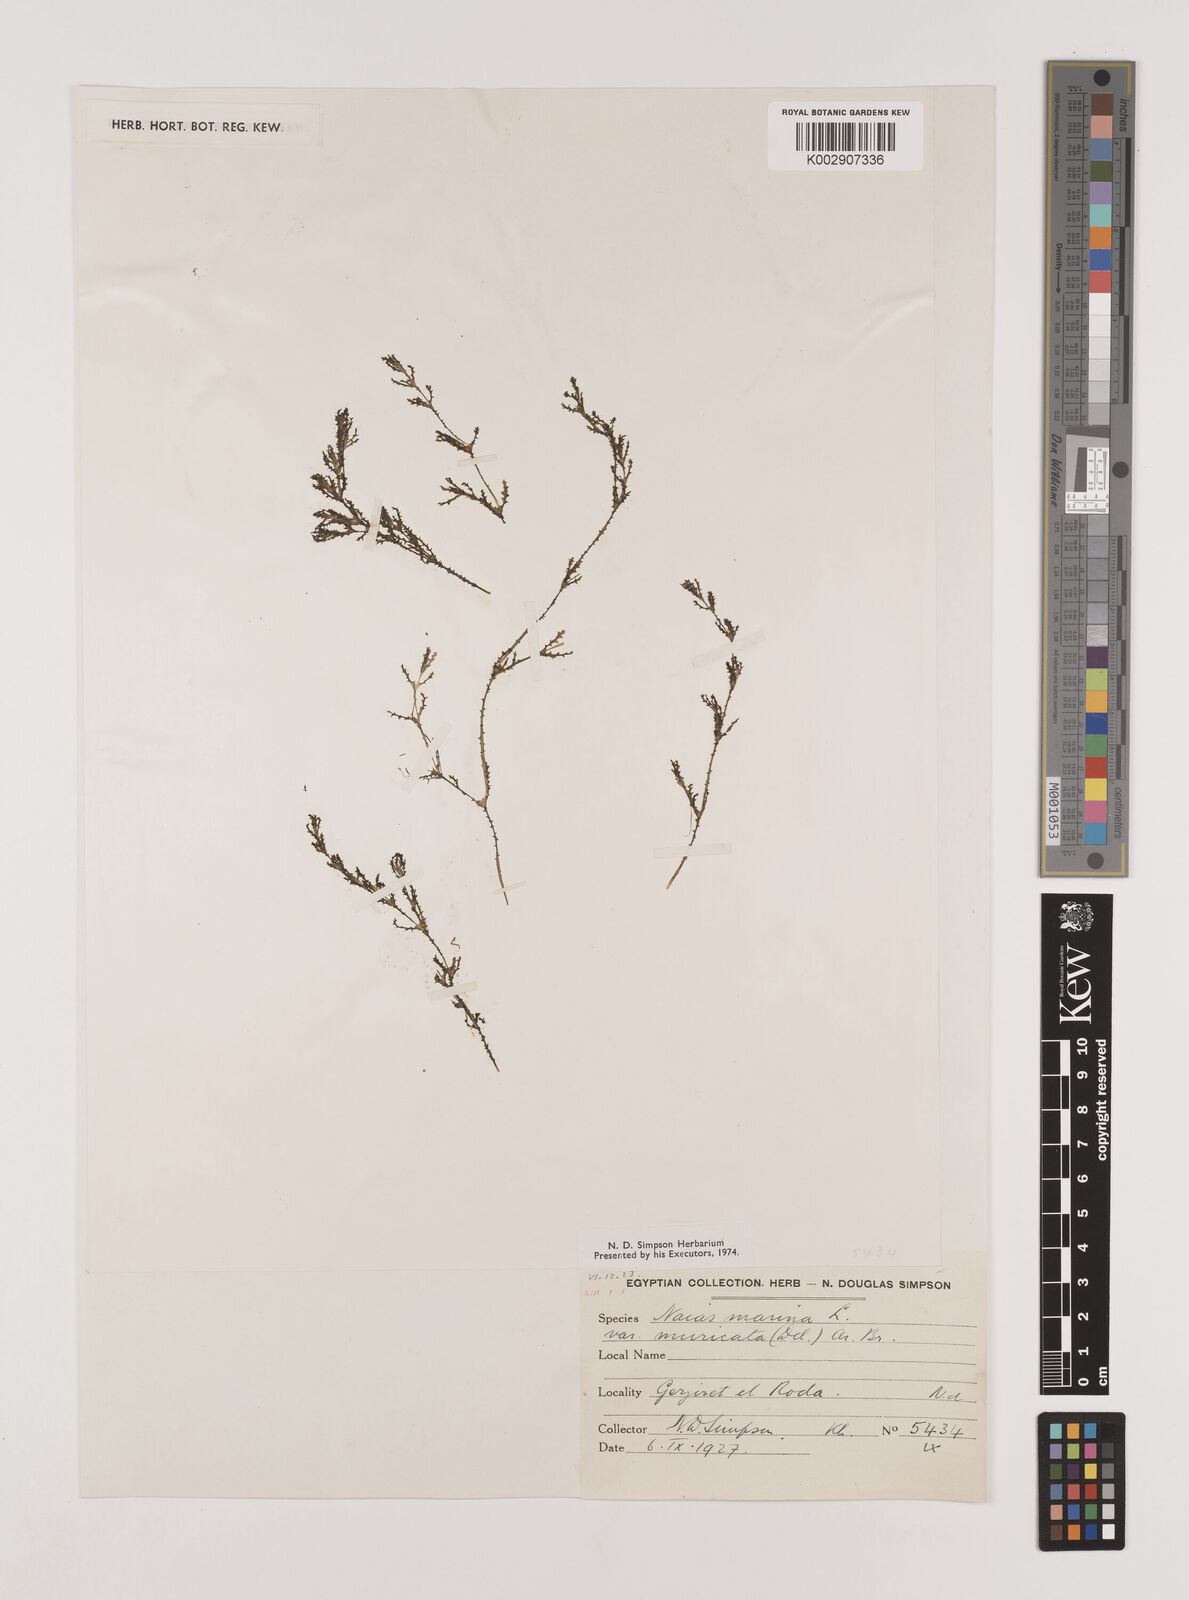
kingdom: Plantae
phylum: Tracheophyta
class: Liliopsida
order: Alismatales
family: Hydrocharitaceae
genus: Najas
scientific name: Najas marina
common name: Holly-leaved naiad
